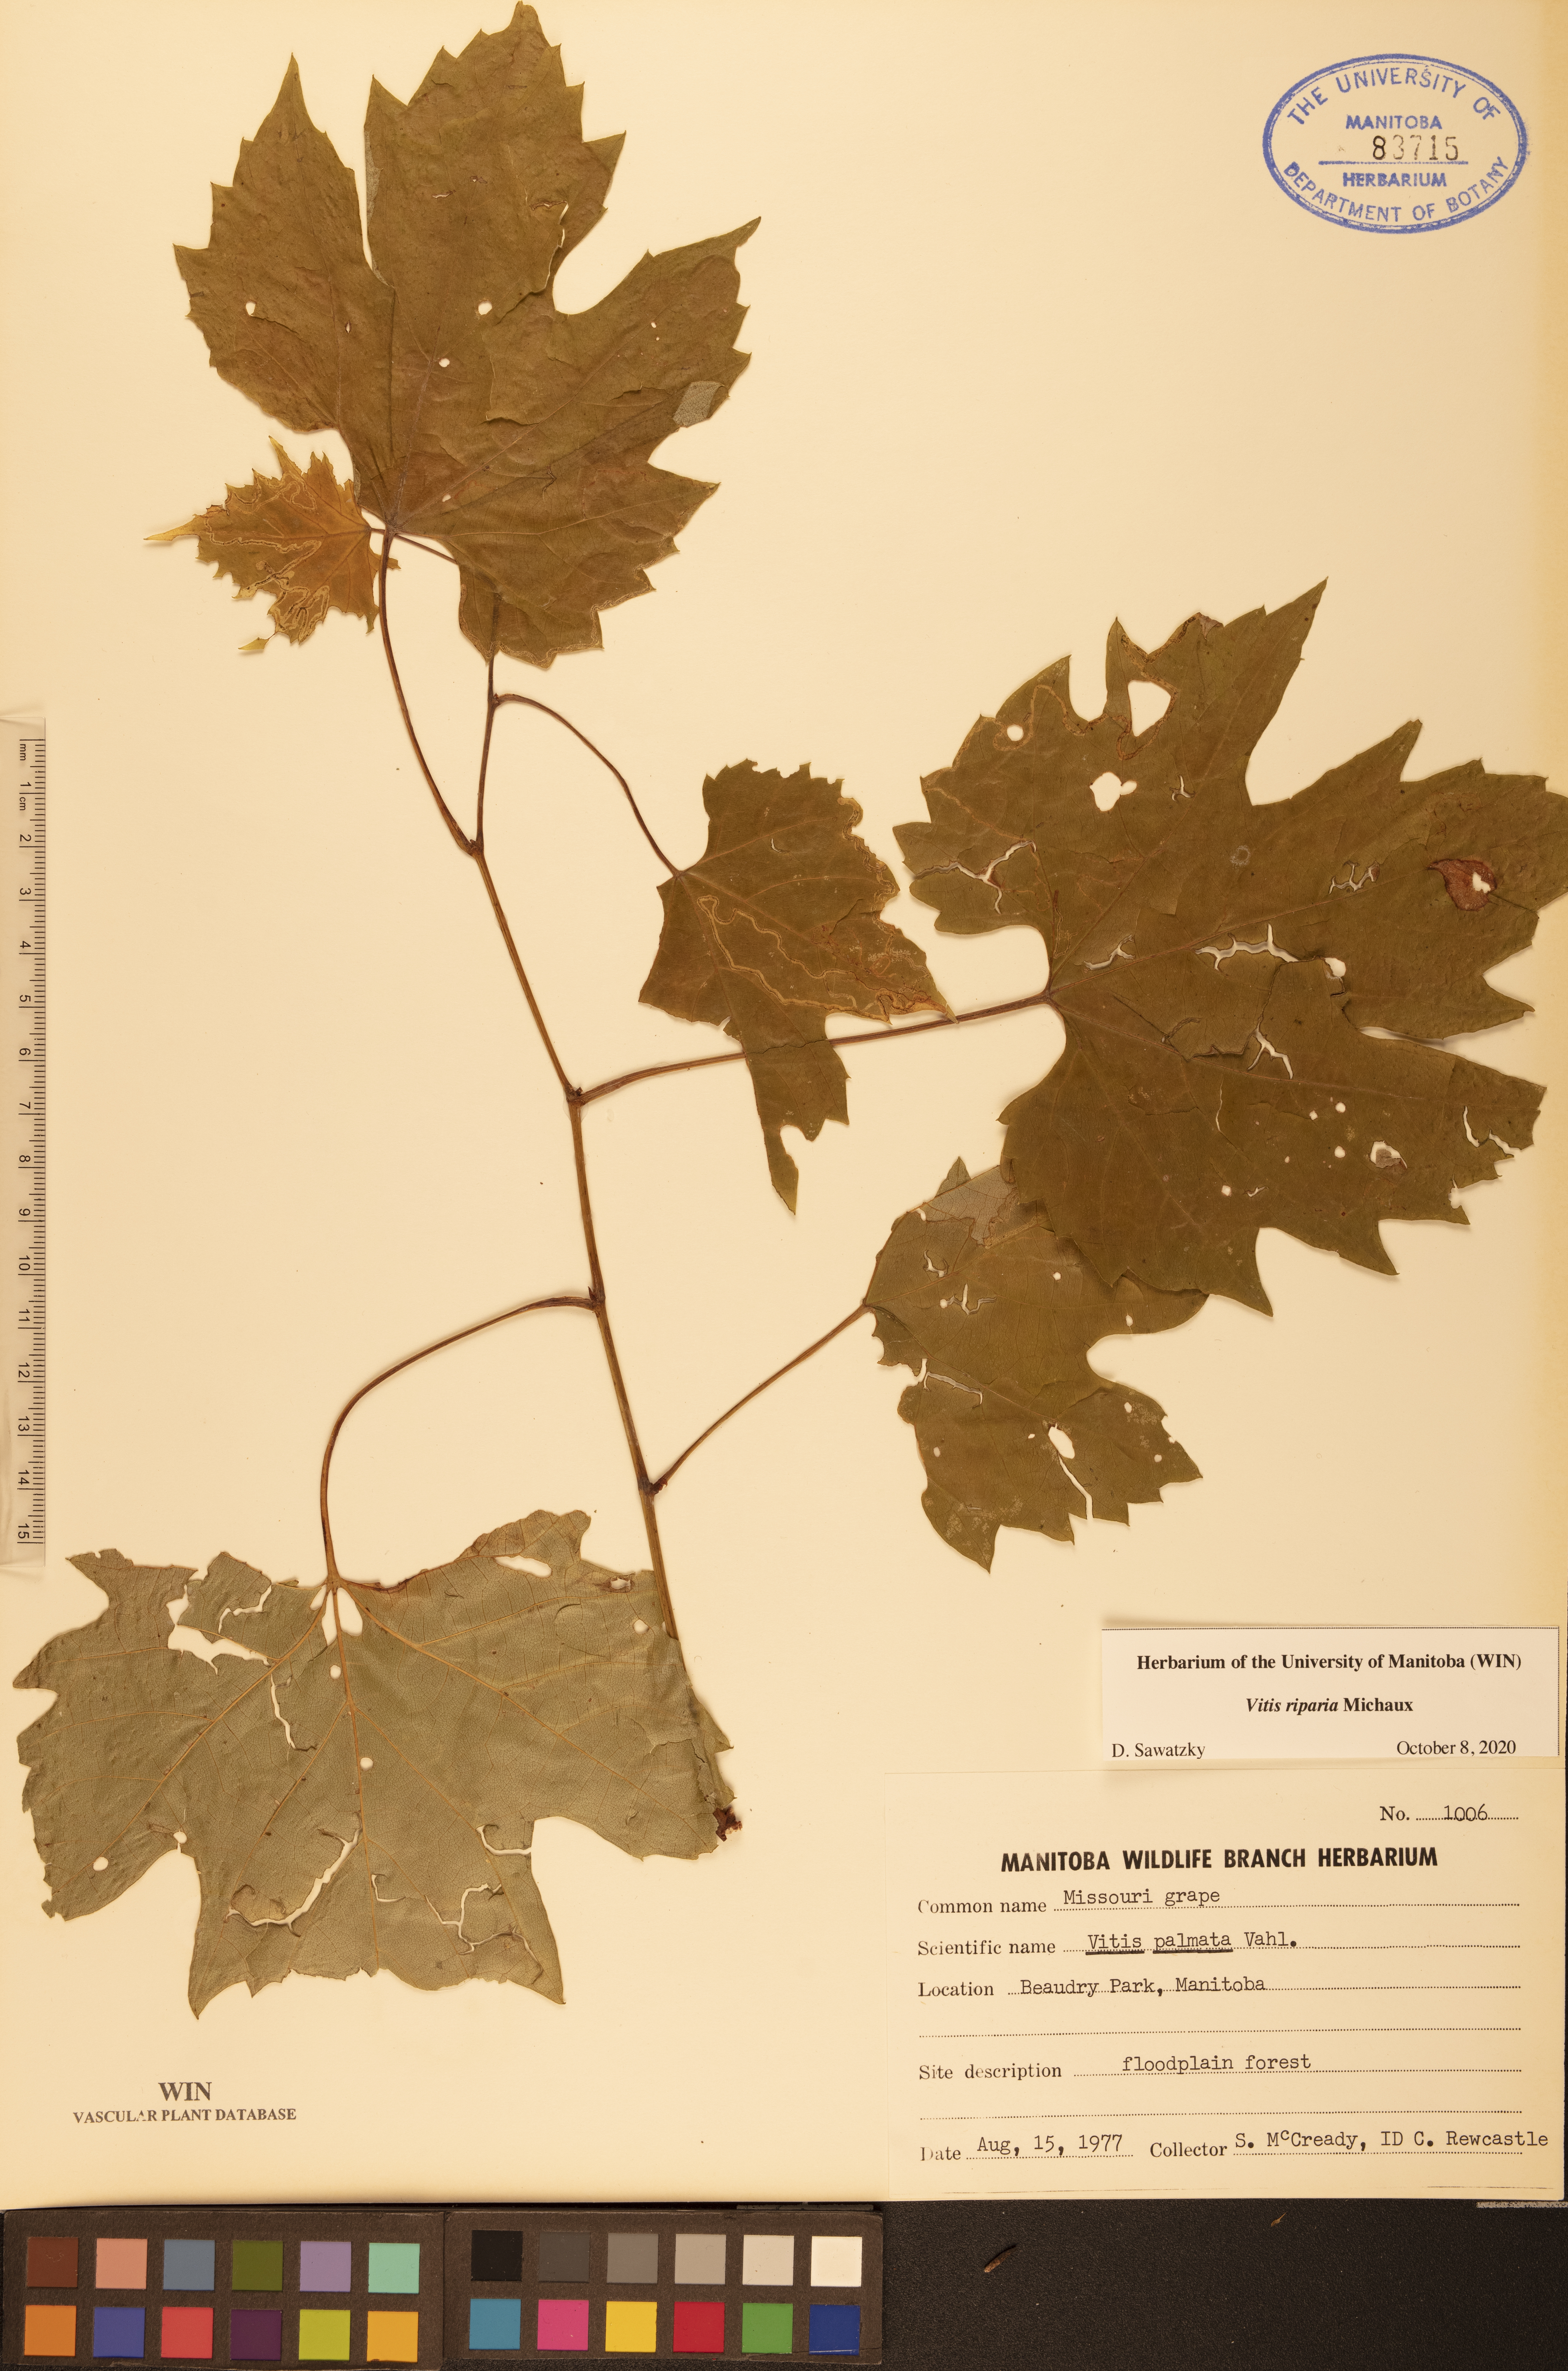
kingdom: Plantae
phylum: Tracheophyta
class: Magnoliopsida
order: Vitales
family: Vitaceae
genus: Vitis
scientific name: Vitis riparia
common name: Frost grape
